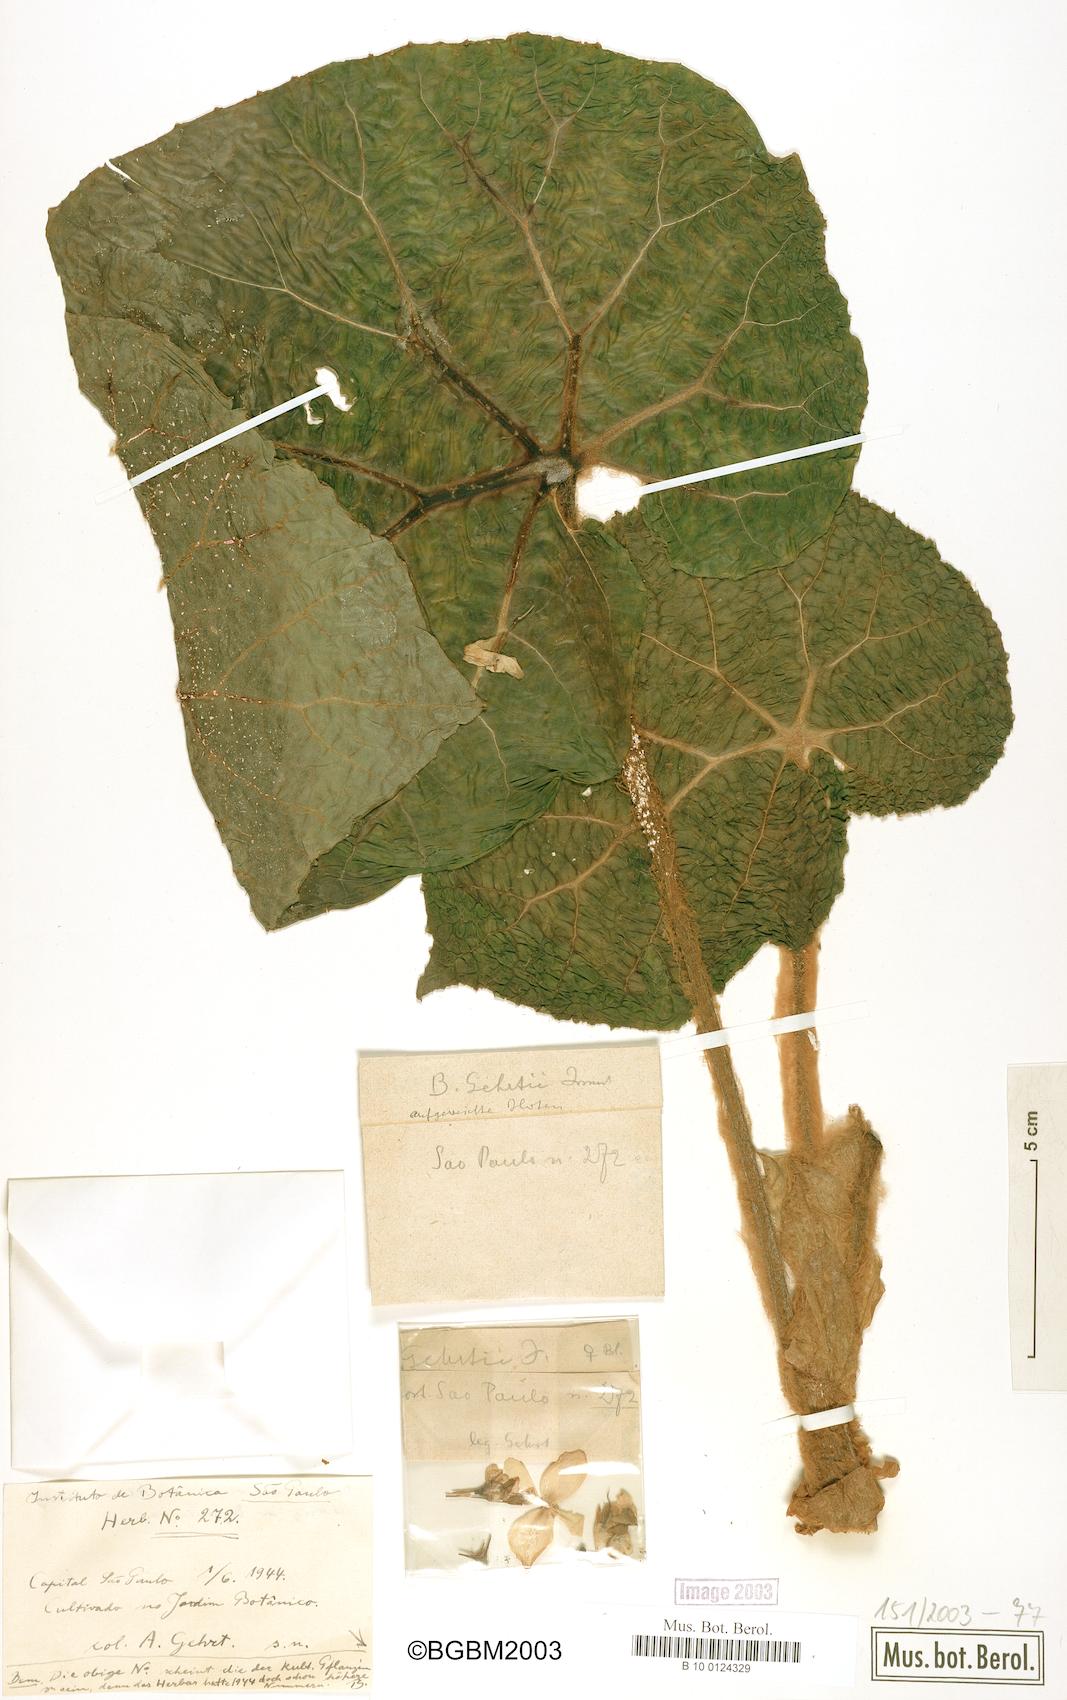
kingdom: Plantae
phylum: Tracheophyta
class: Magnoliopsida
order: Cucurbitales
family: Begoniaceae
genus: Begonia
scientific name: Begonia gehrtii
